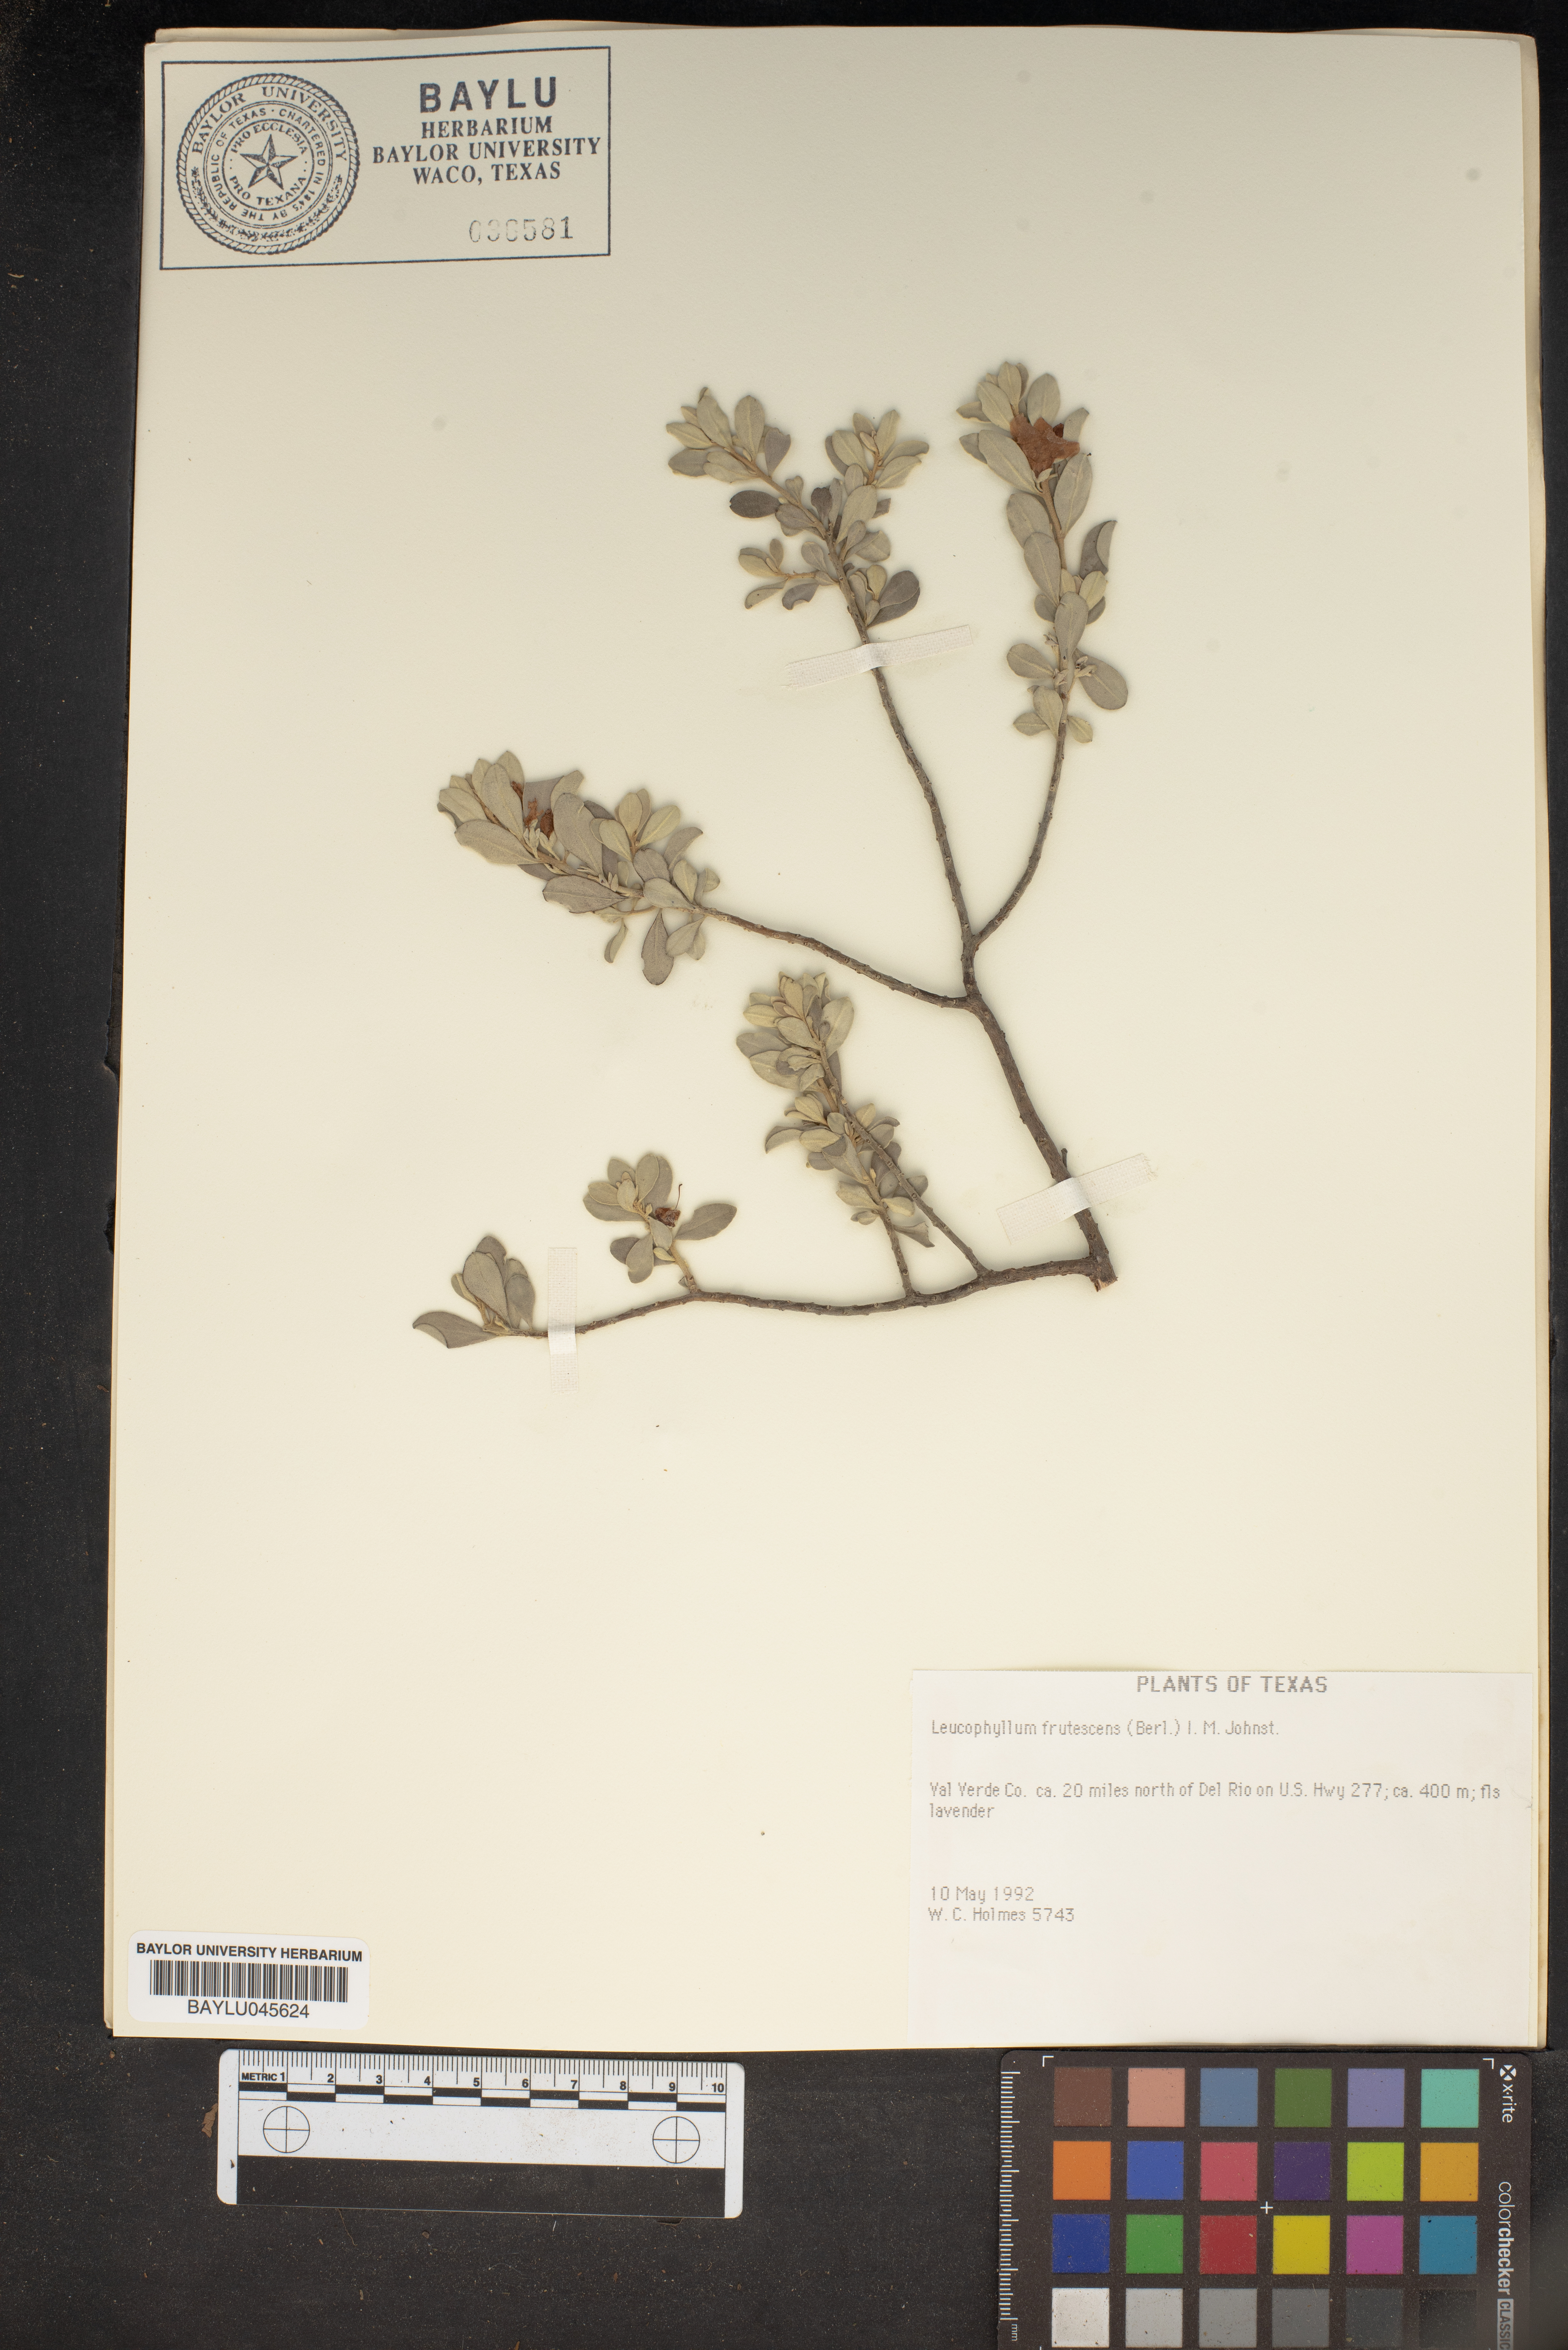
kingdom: Plantae
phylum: Tracheophyta
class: Magnoliopsida
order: Lamiales
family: Scrophulariaceae
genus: Leucophyllum
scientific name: Leucophyllum frutescens
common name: Texas silverleaf
